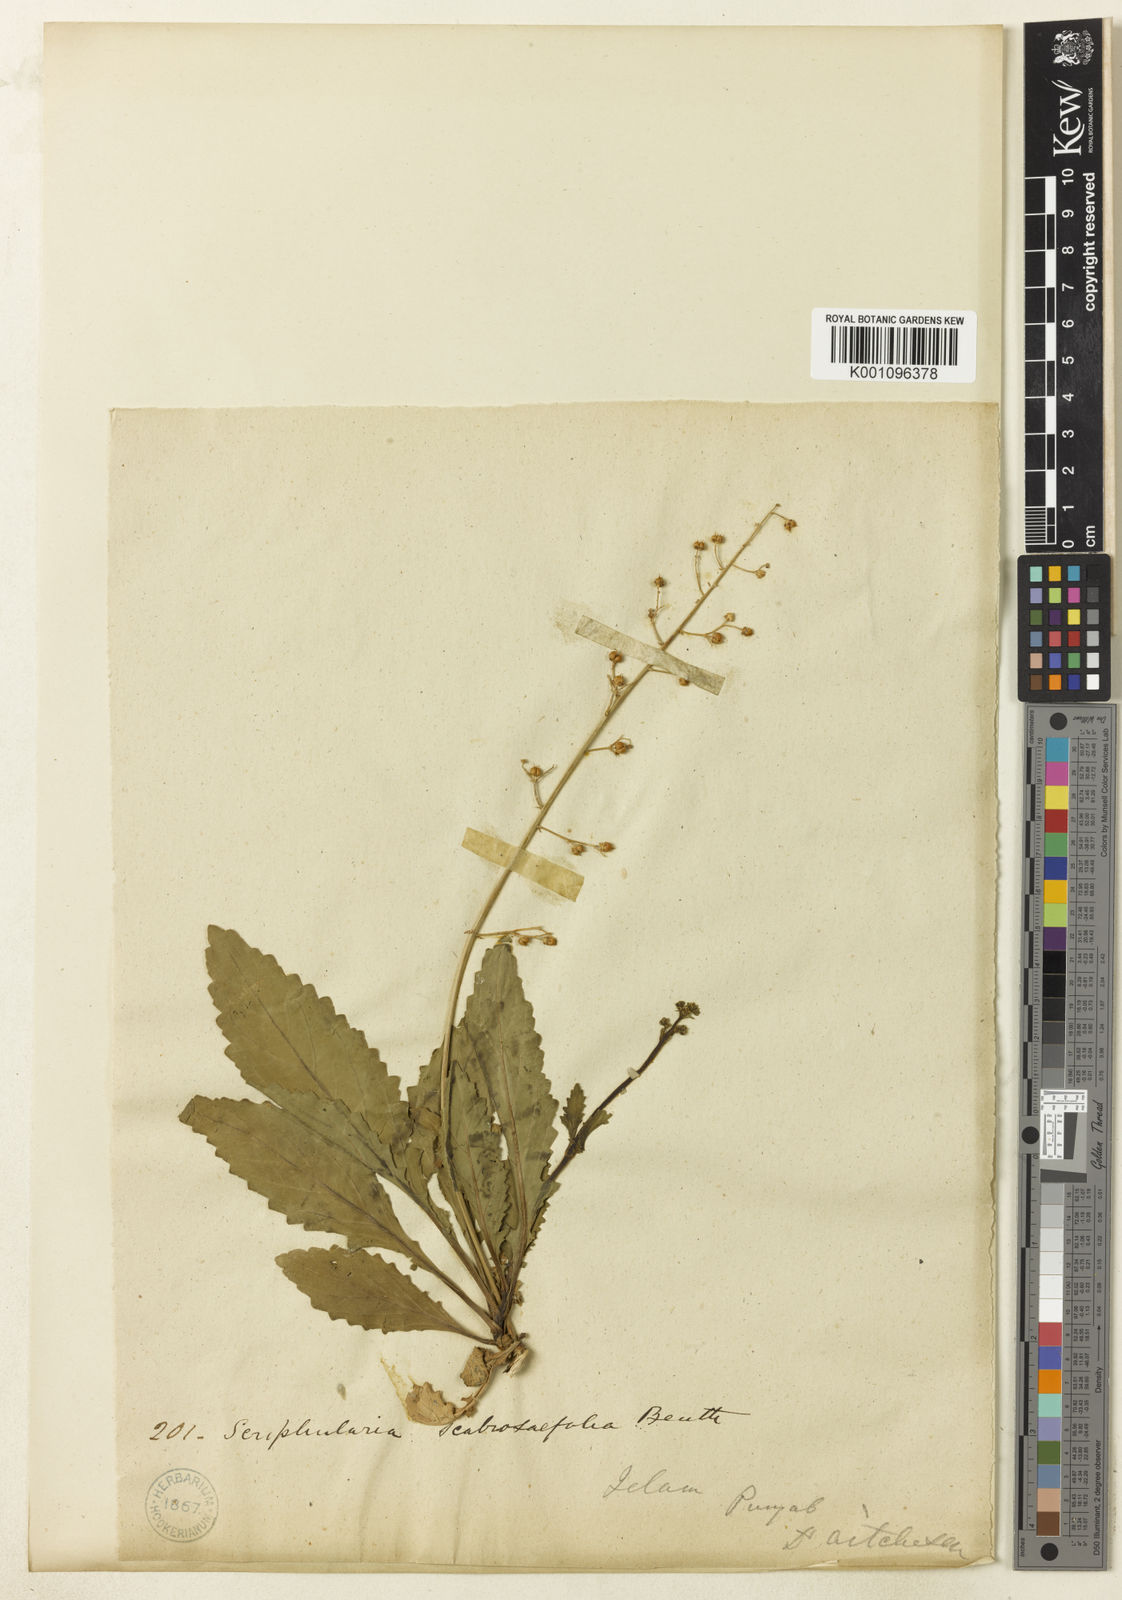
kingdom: Plantae
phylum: Tracheophyta
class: Magnoliopsida
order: Lamiales
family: Scrophulariaceae
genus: Scrophularia
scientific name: Scrophularia scabiosifolia
